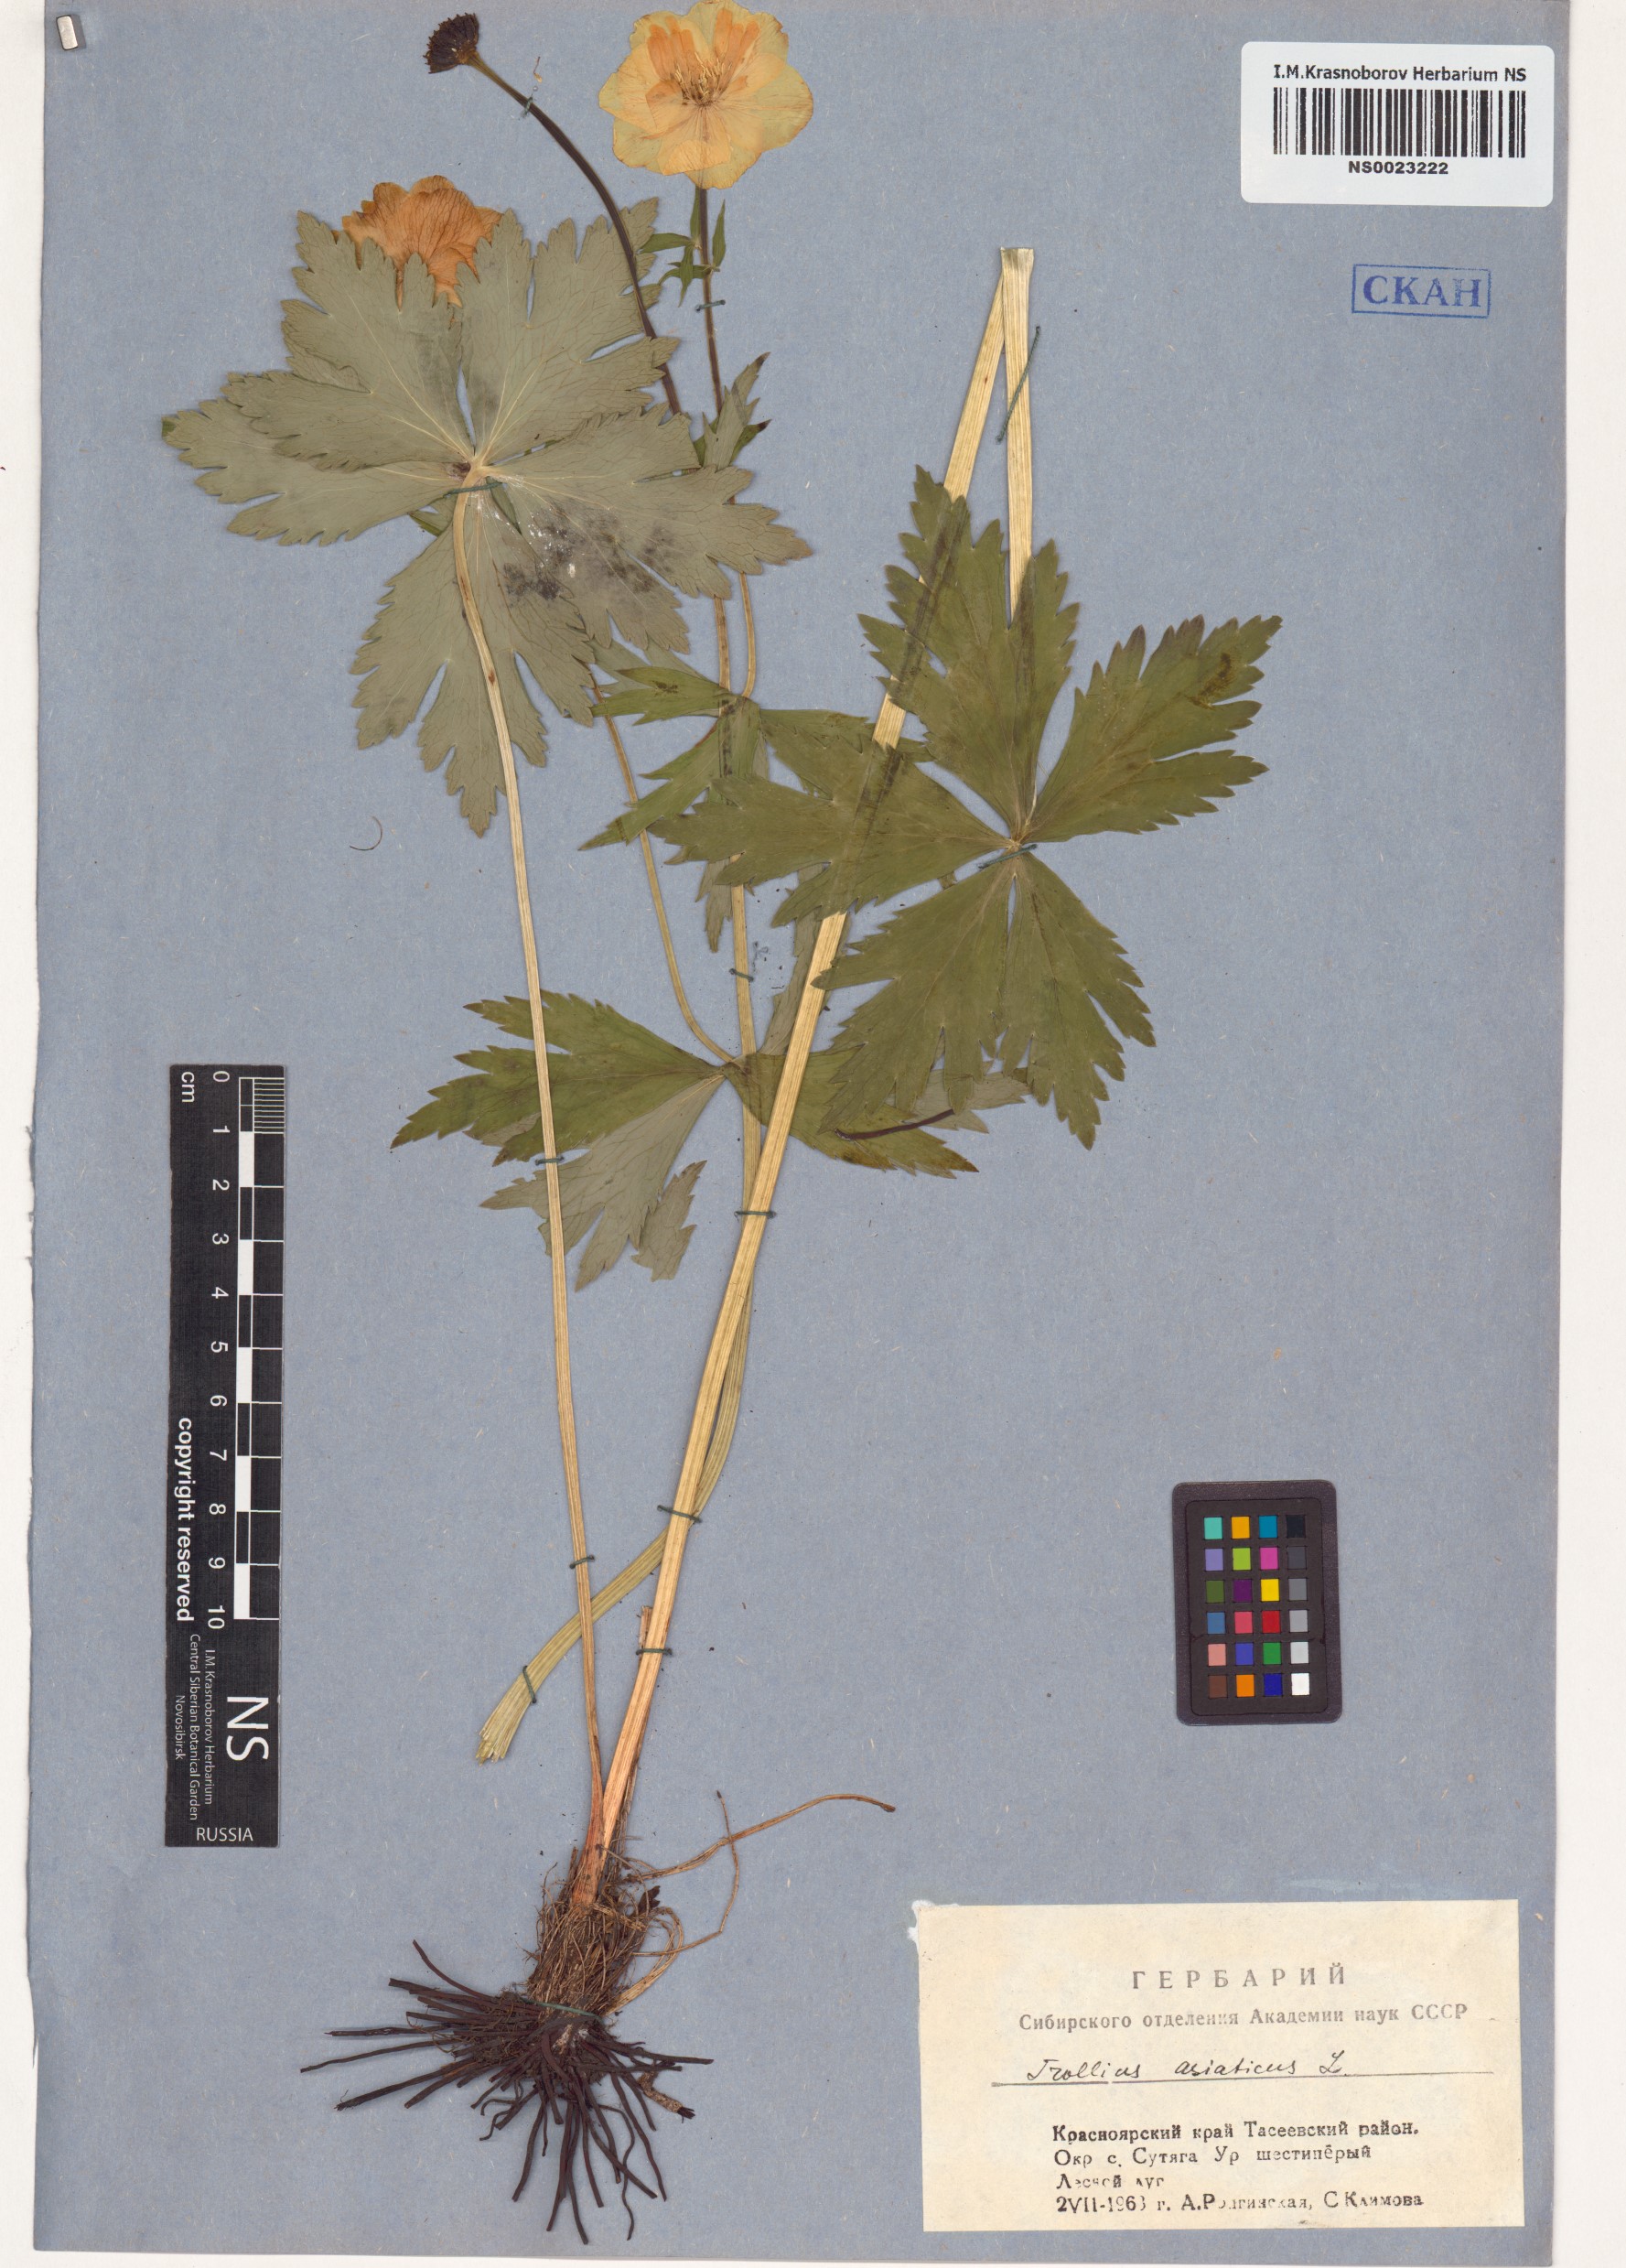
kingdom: Plantae
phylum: Tracheophyta
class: Magnoliopsida
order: Ranunculales
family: Ranunculaceae
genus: Trollius
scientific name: Trollius asiaticus
